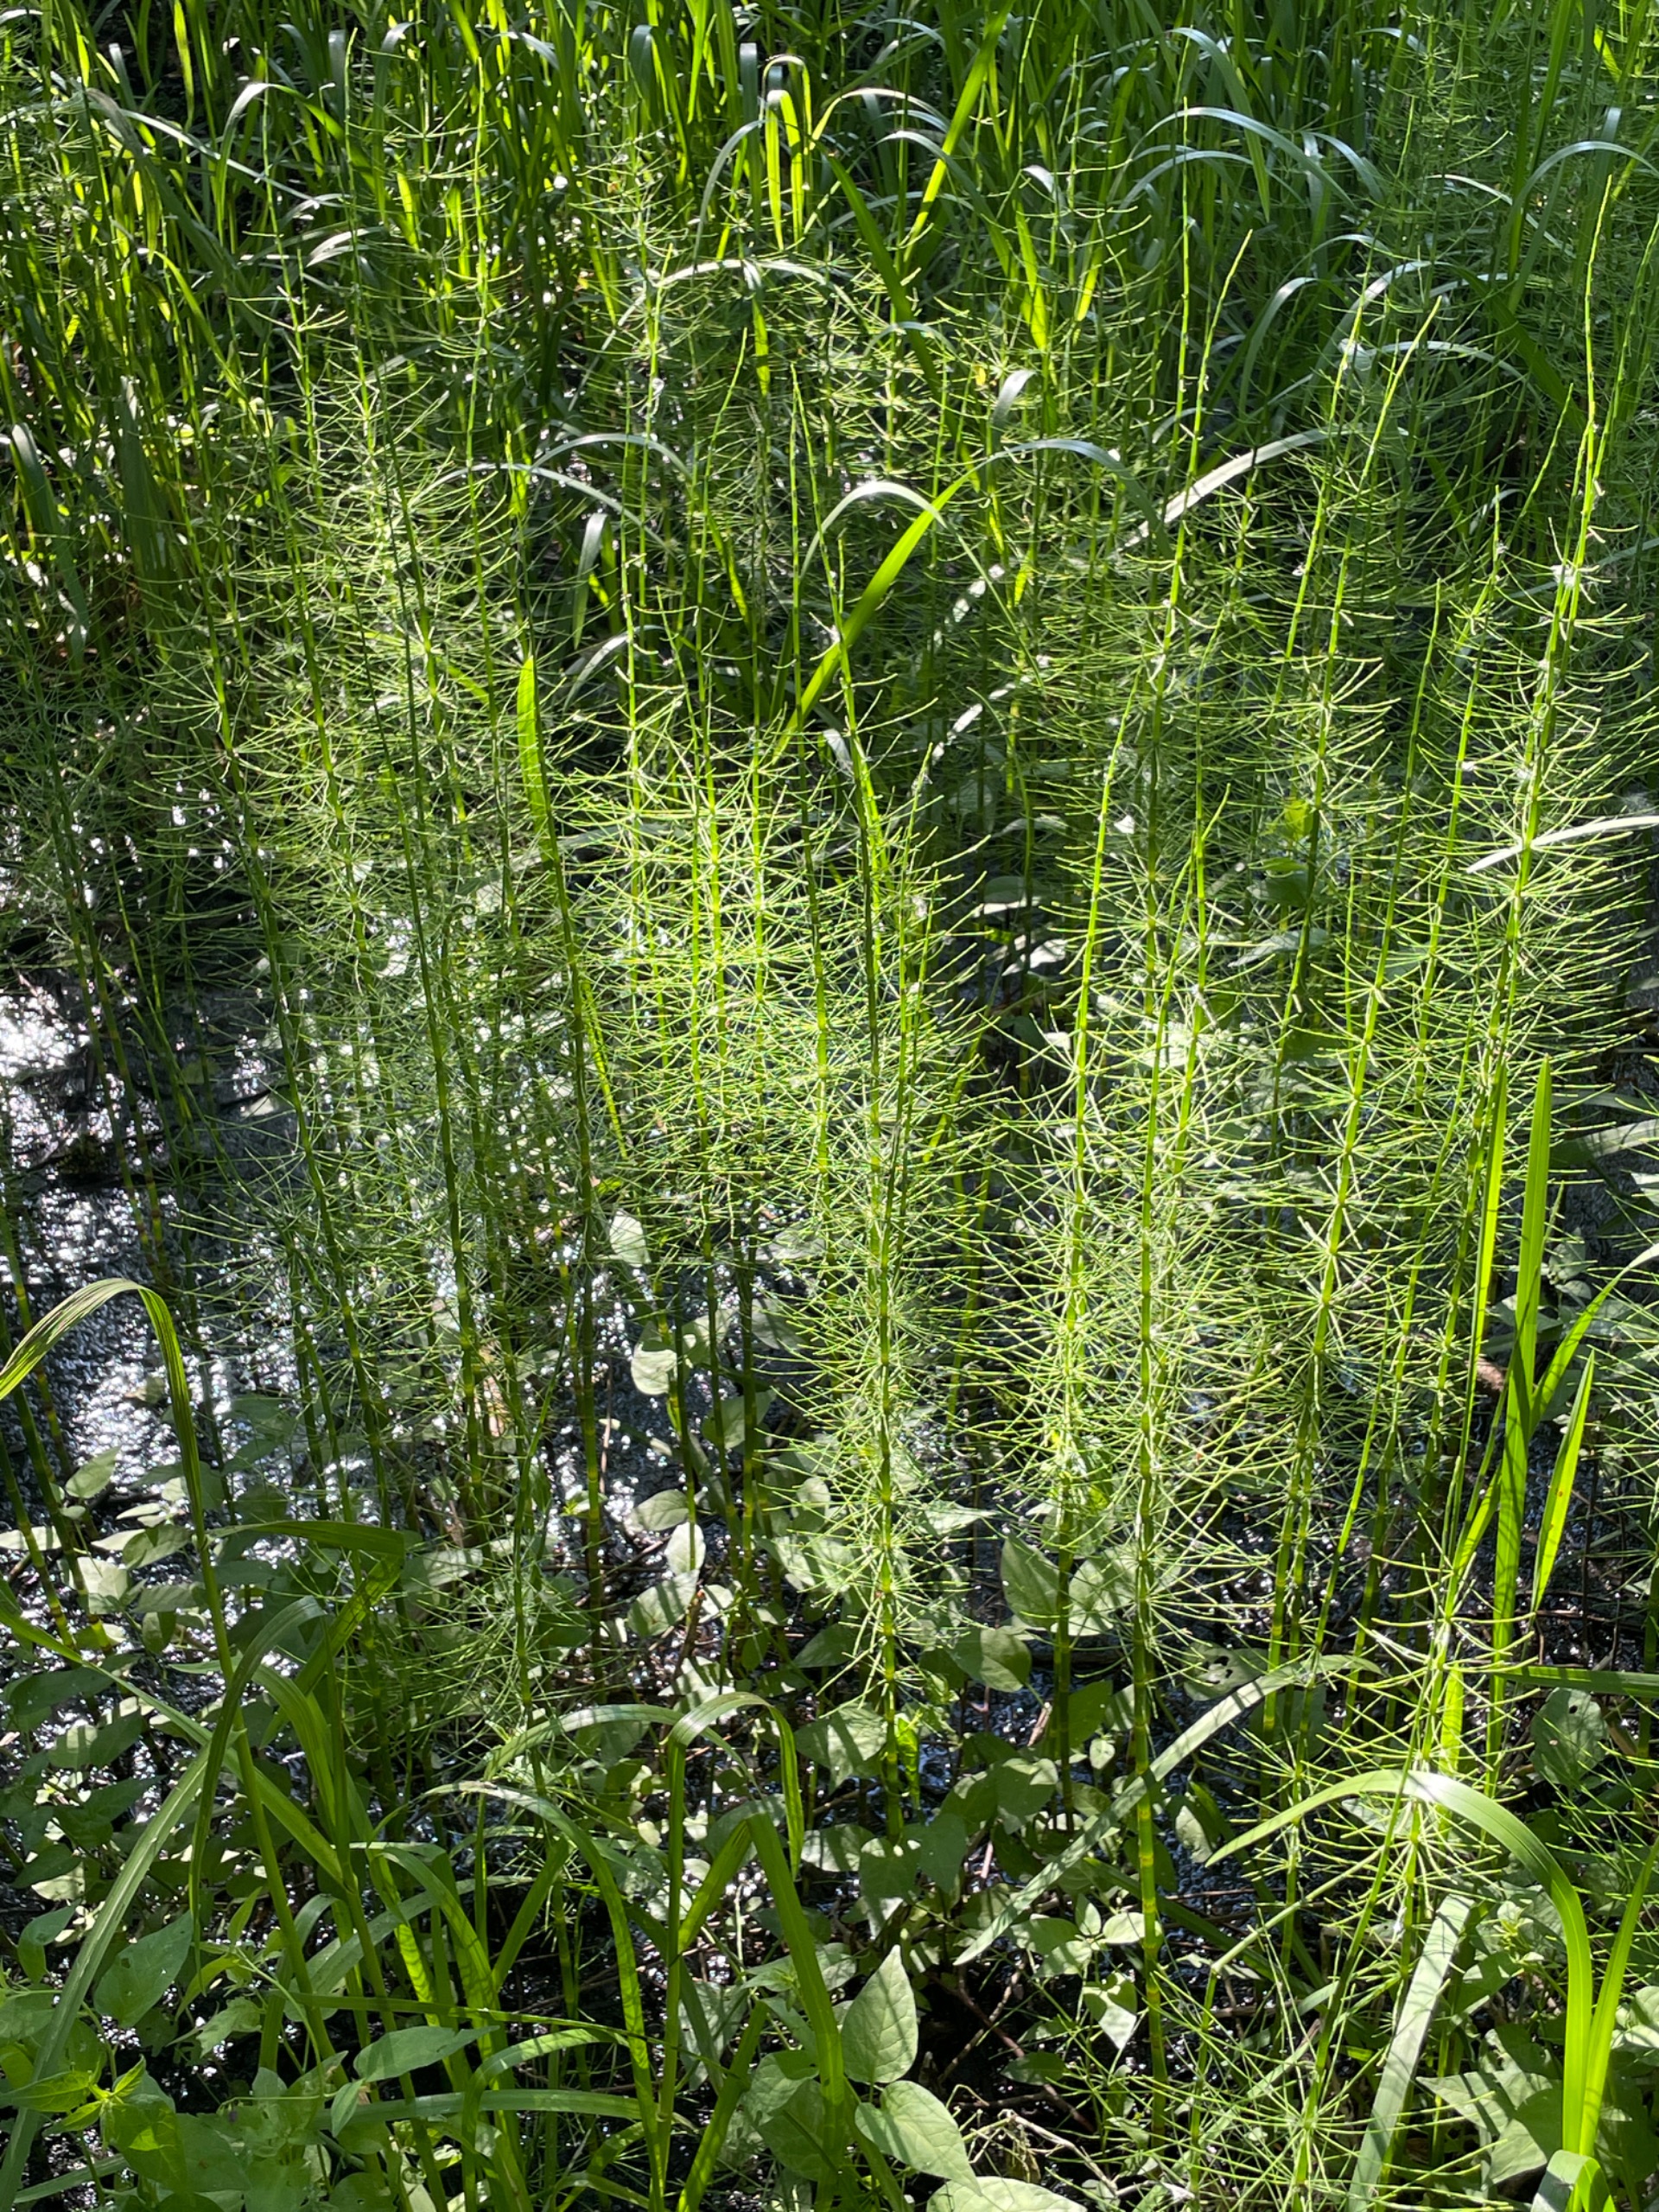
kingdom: Plantae
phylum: Tracheophyta
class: Polypodiopsida
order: Equisetales
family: Equisetaceae
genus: Equisetum
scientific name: Equisetum fluviatile
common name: Dynd-padderok
